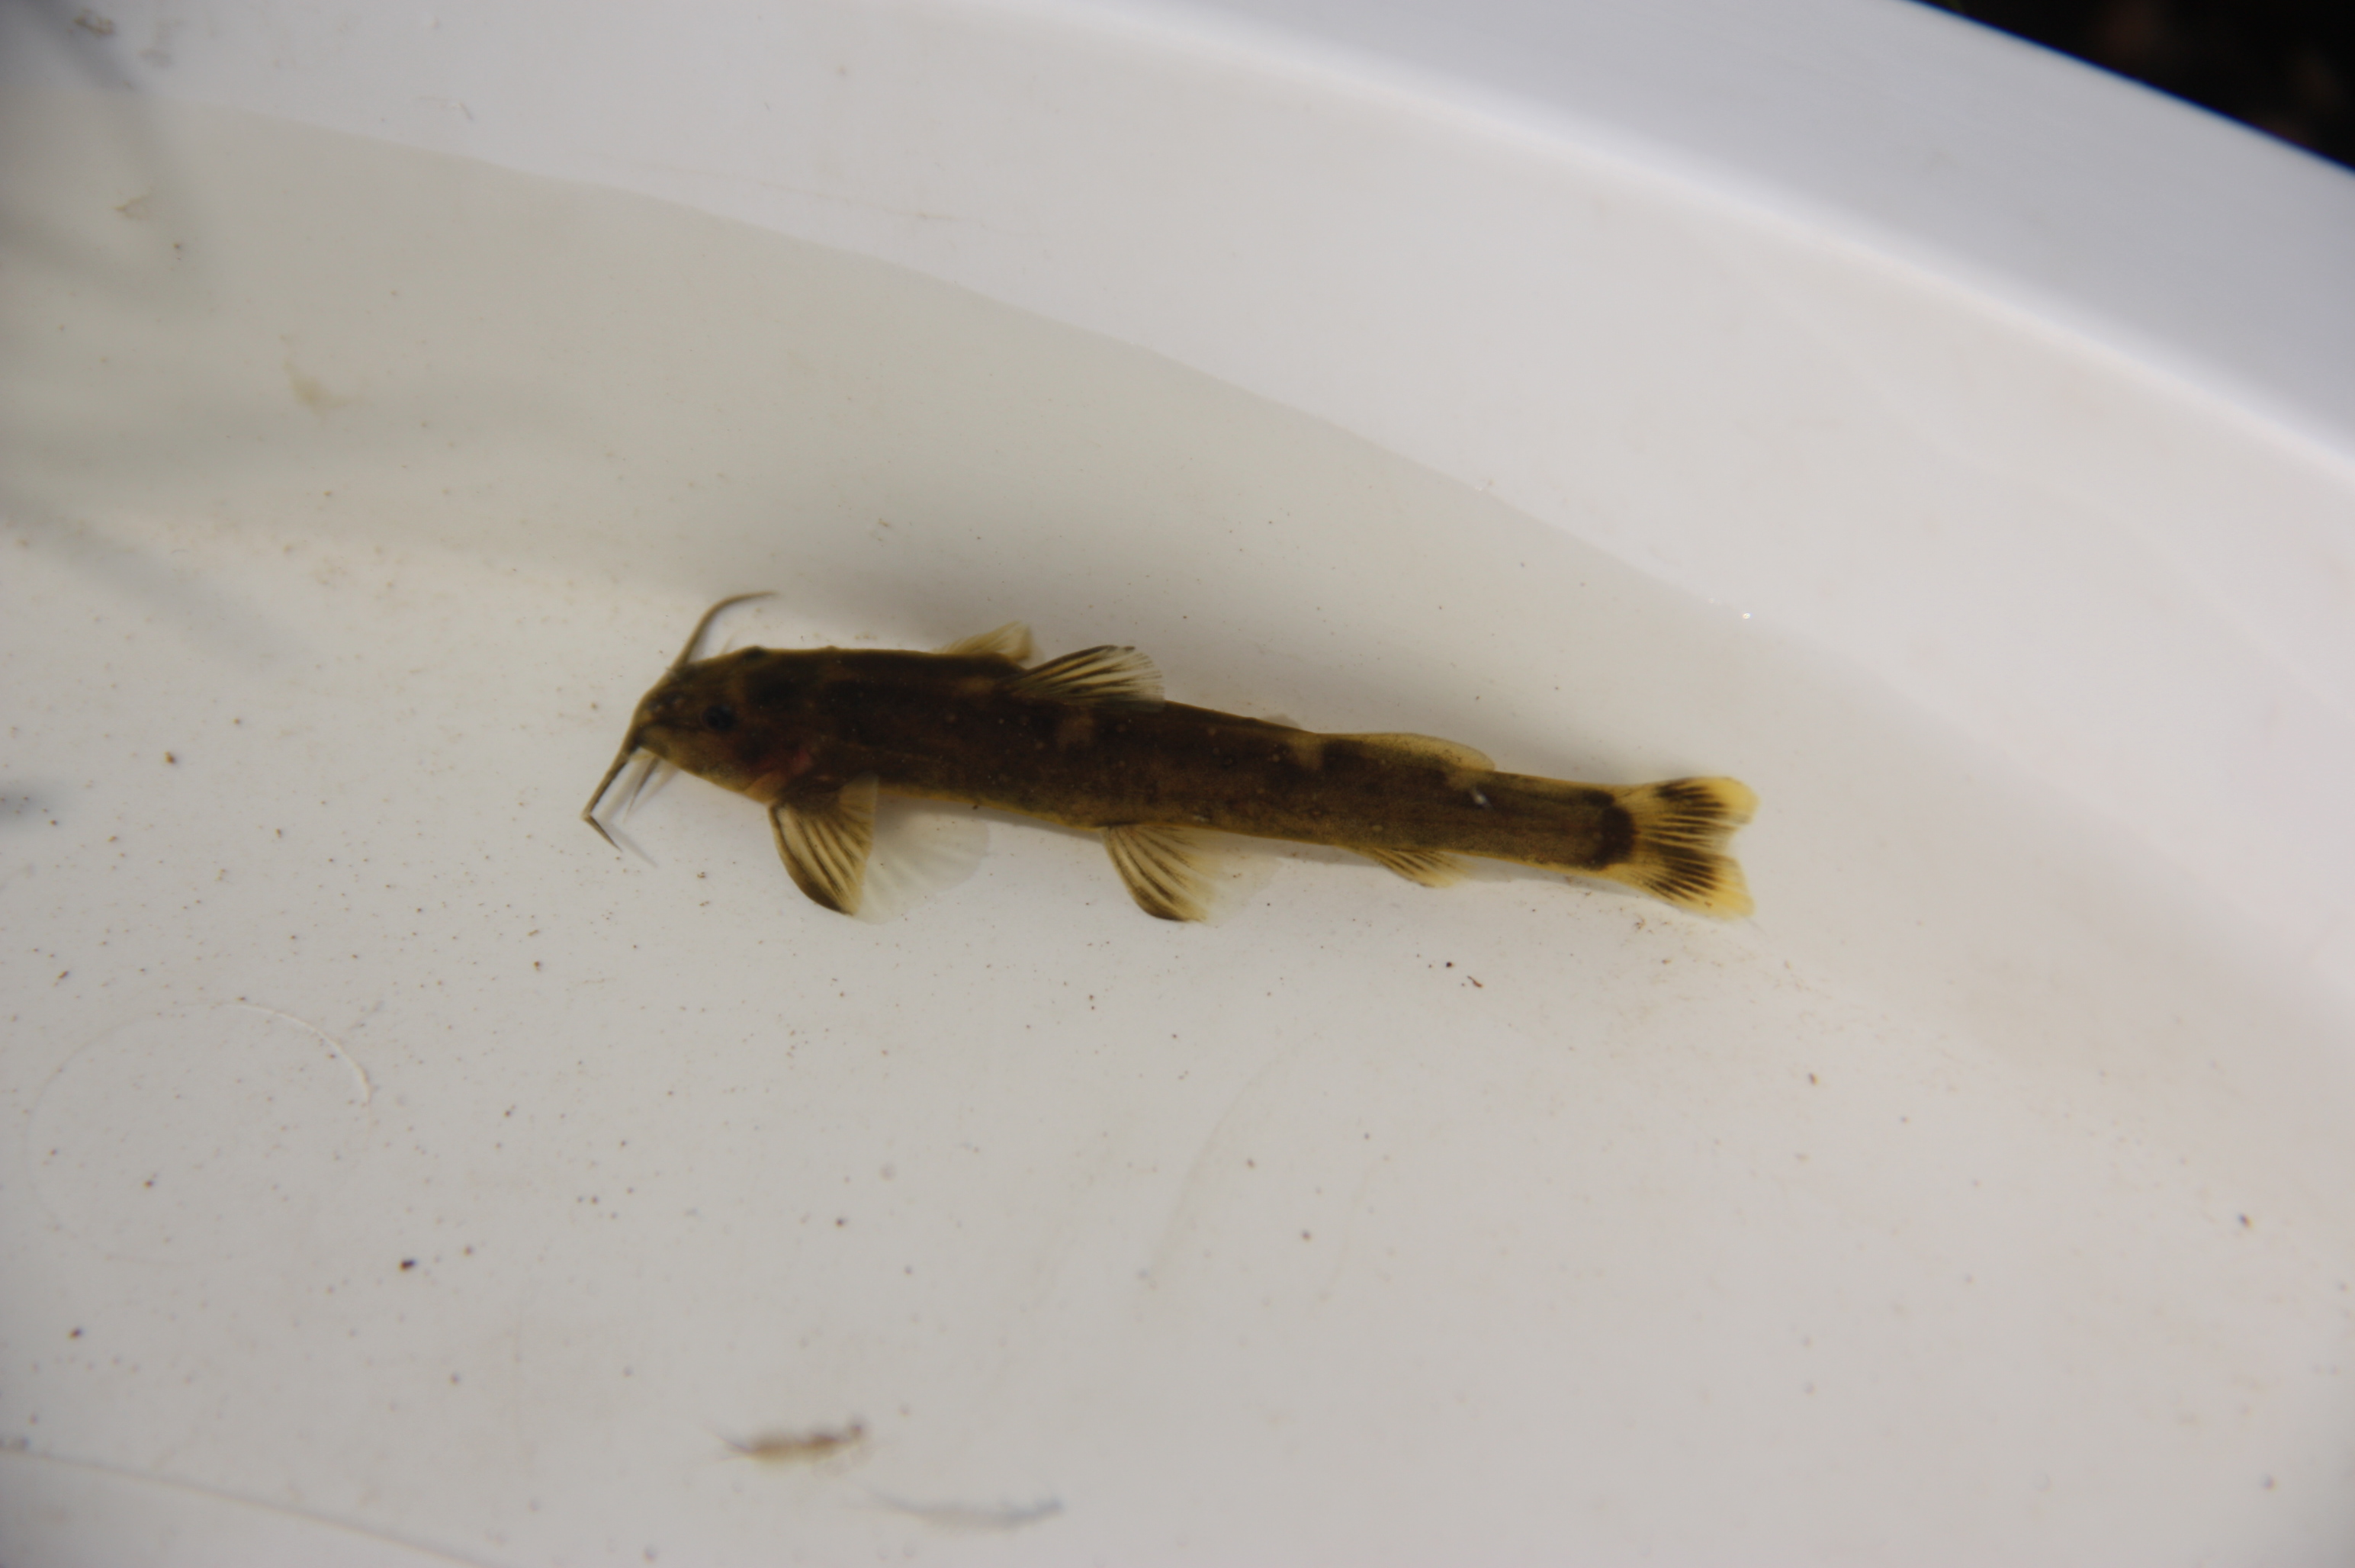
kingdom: Animalia
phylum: Chordata
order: Siluriformes
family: Amphiliidae
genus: Amphilius
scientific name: Amphilius natalensis
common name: Natal mountain catfish
